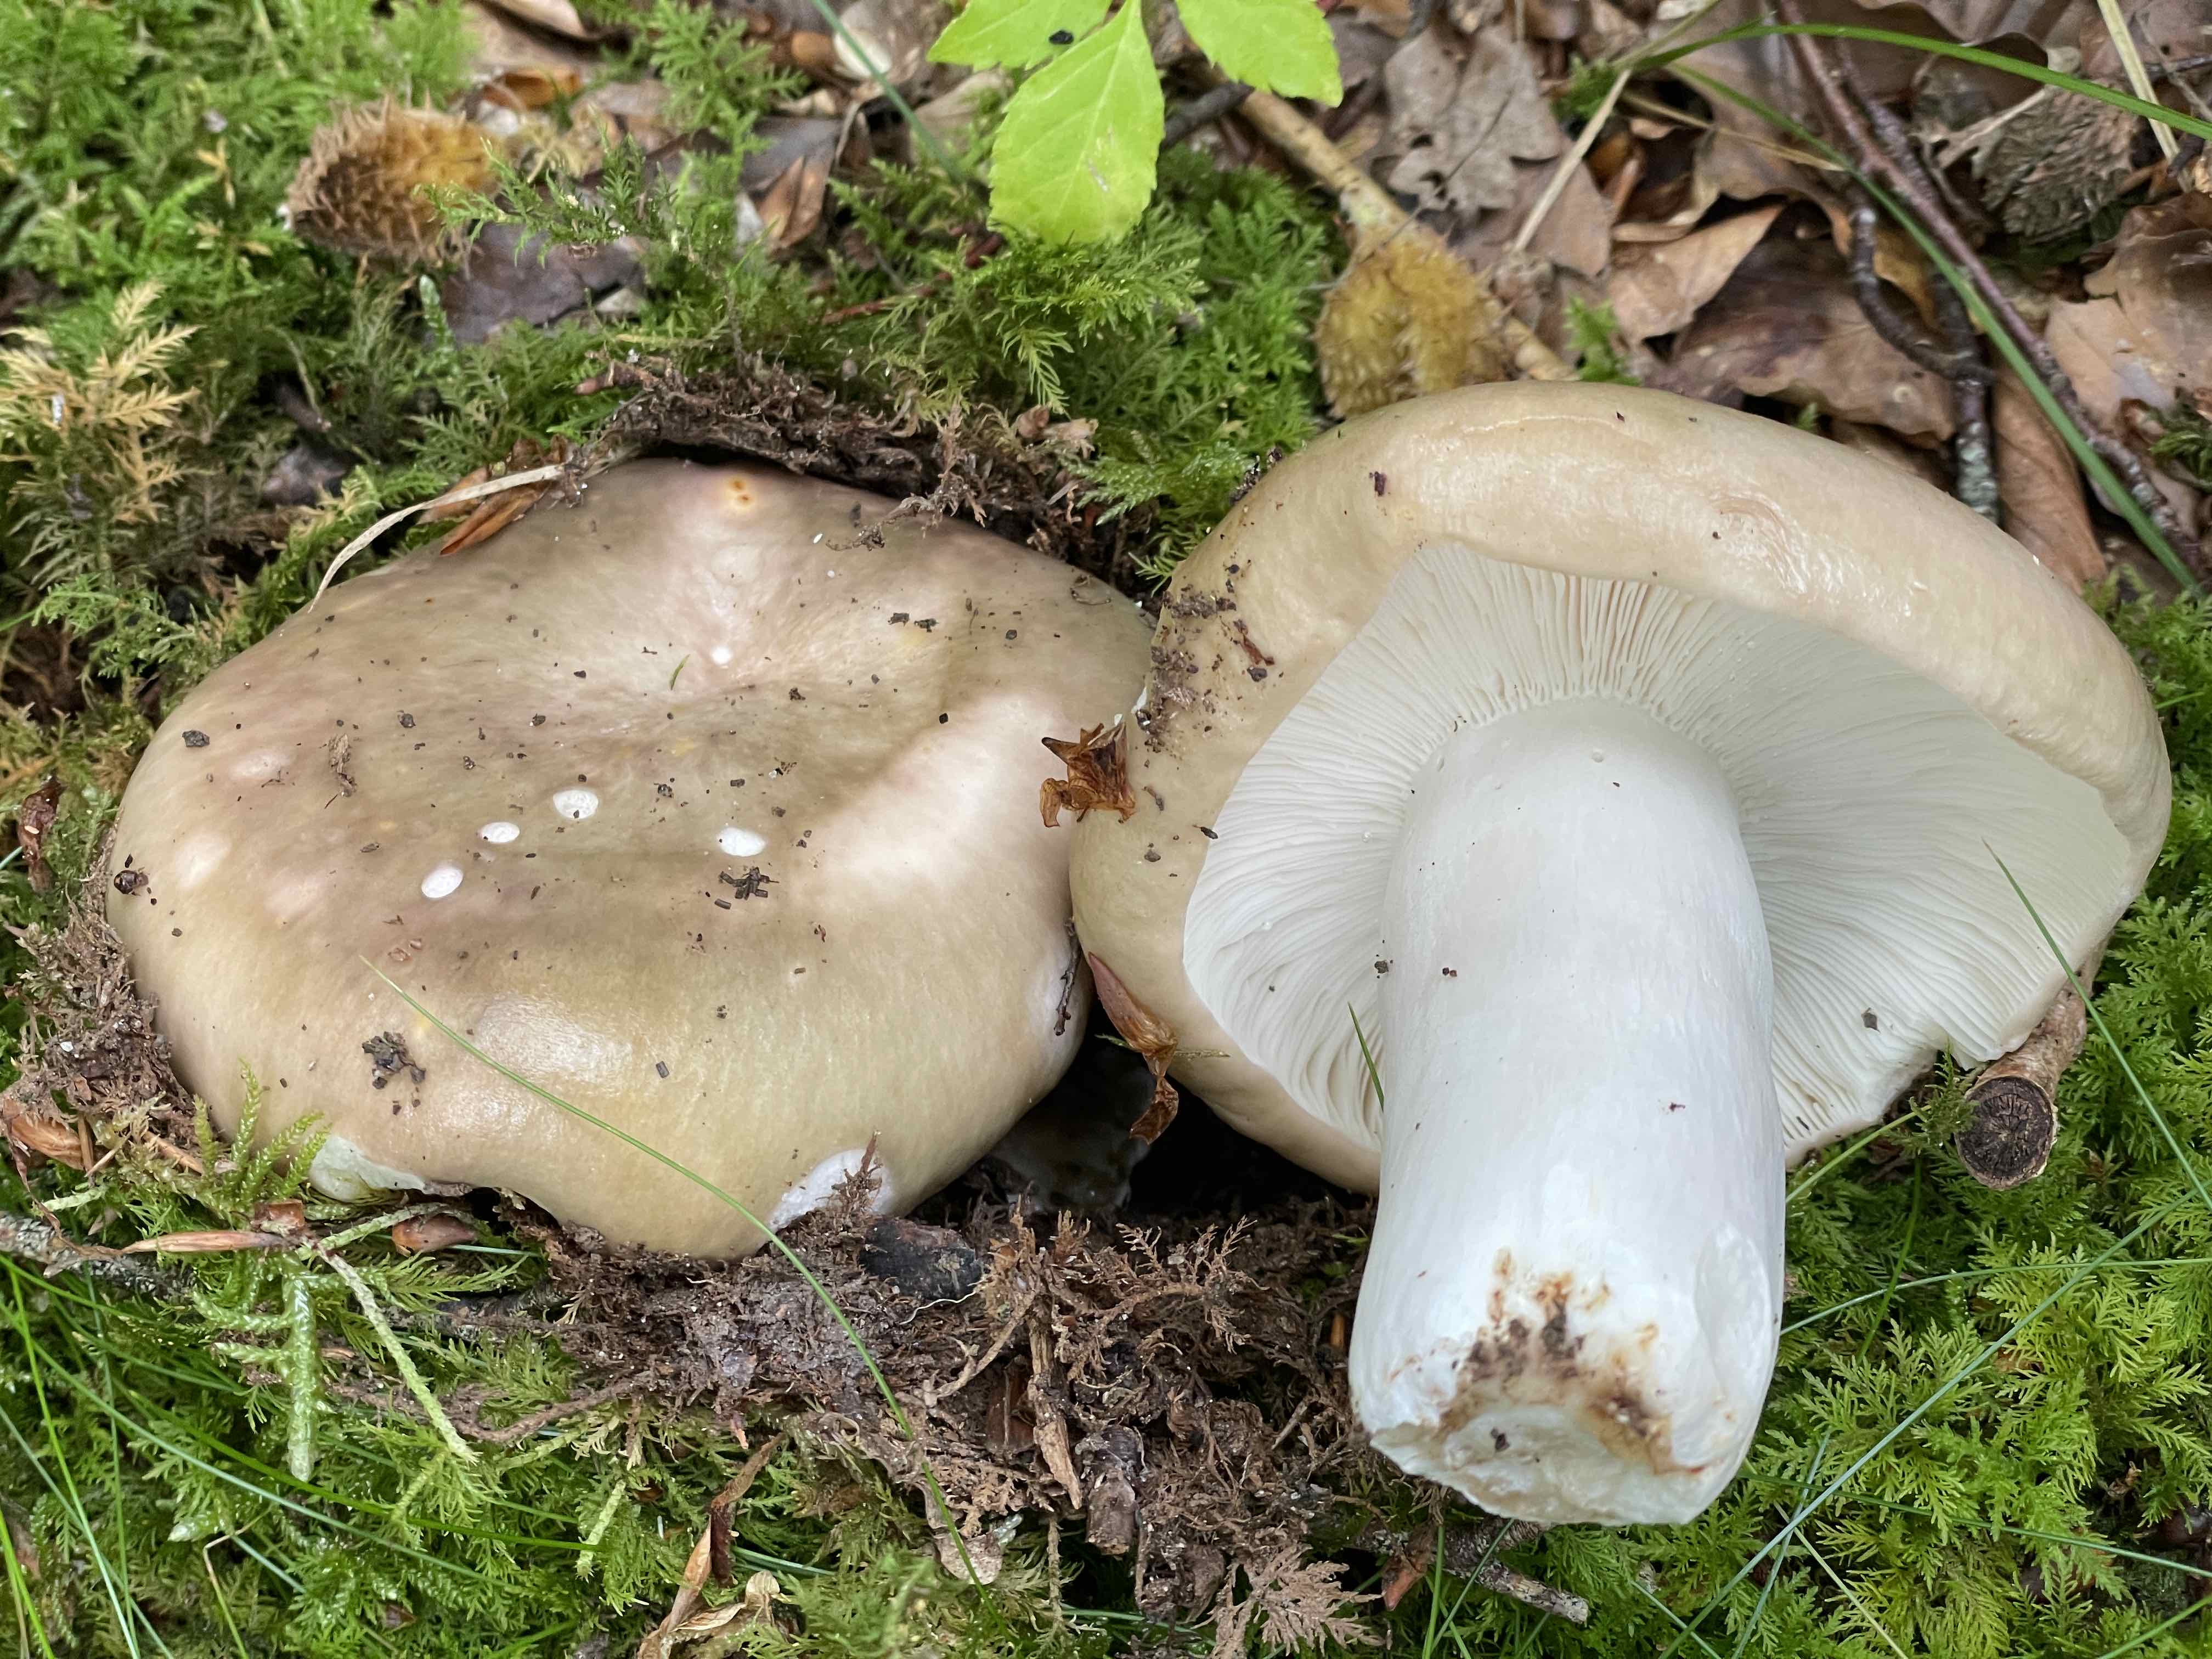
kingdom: Fungi
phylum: Basidiomycota
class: Agaricomycetes
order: Russulales
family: Russulaceae
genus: Russula
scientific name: Russula
